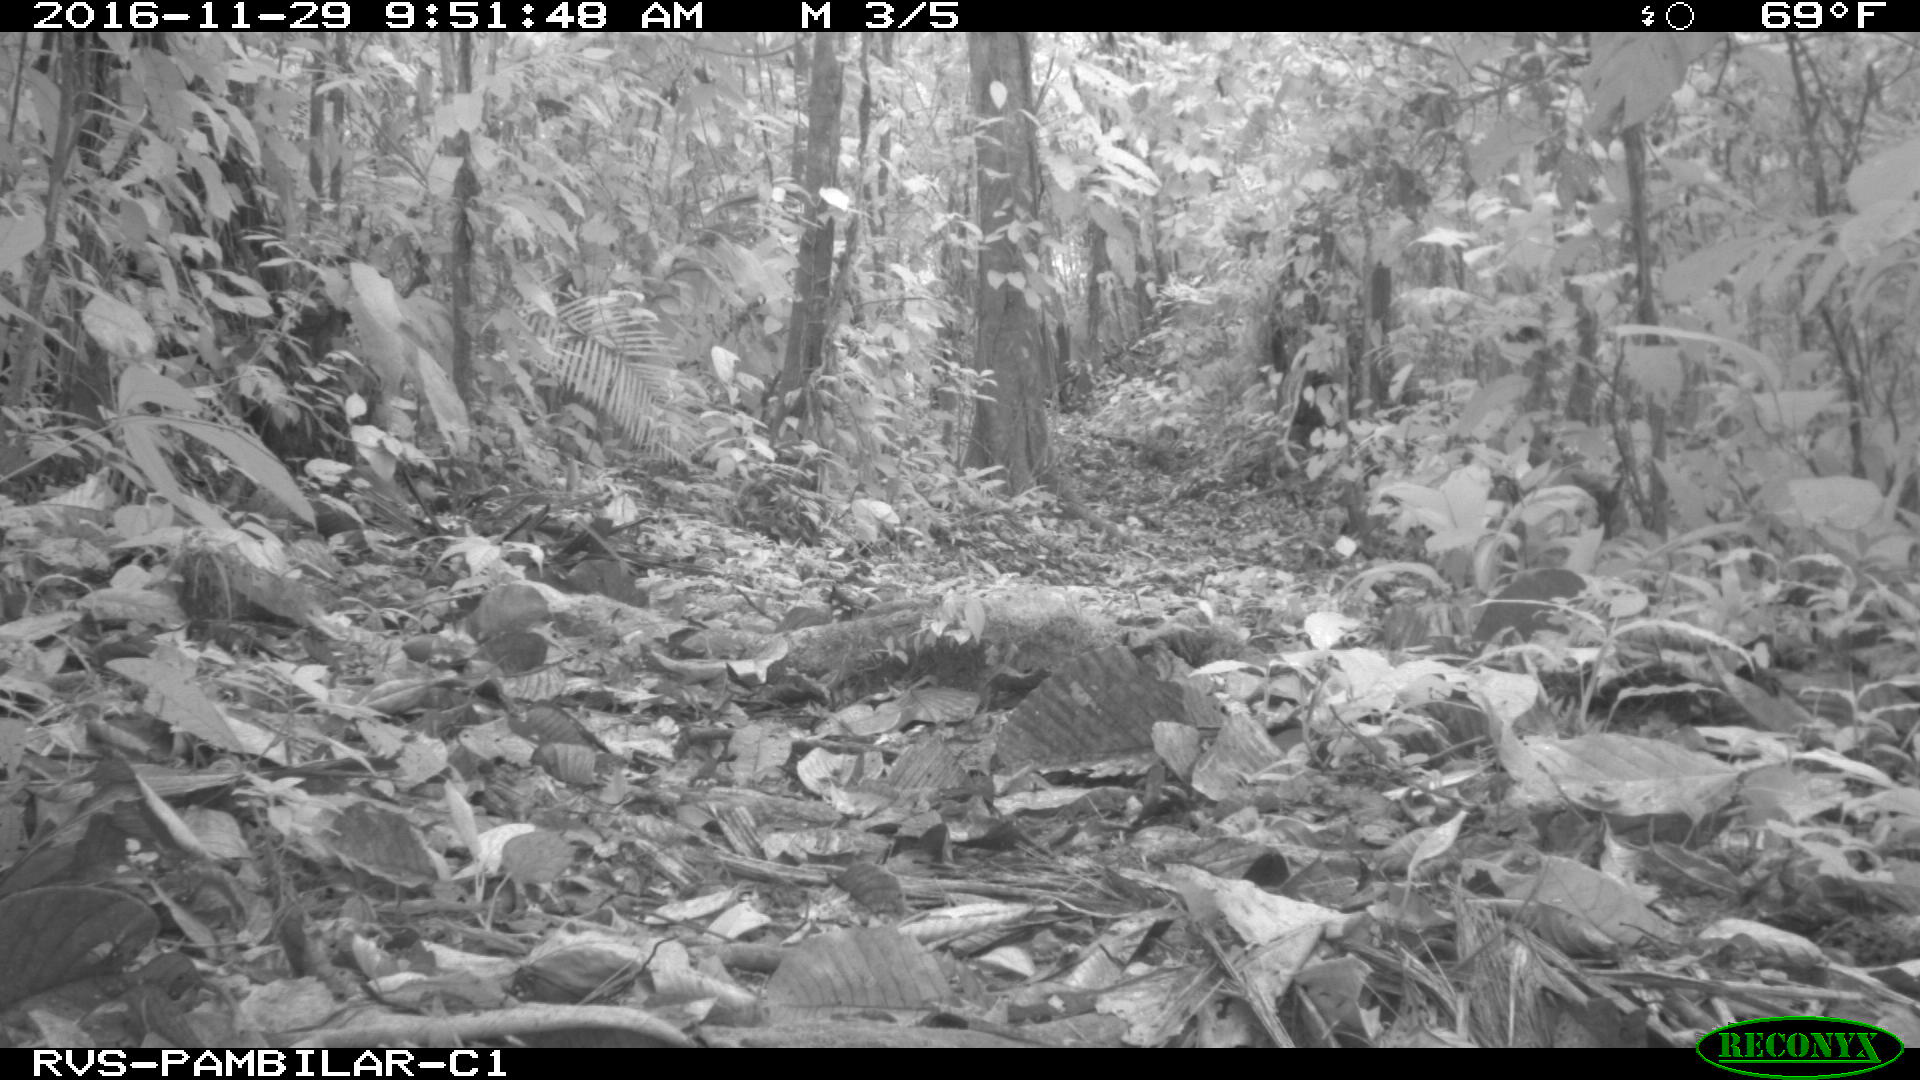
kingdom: Animalia
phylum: Chordata
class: Mammalia
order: Artiodactyla
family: Tayassuidae
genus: Pecari
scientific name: Pecari tajacu
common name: Collared peccary
